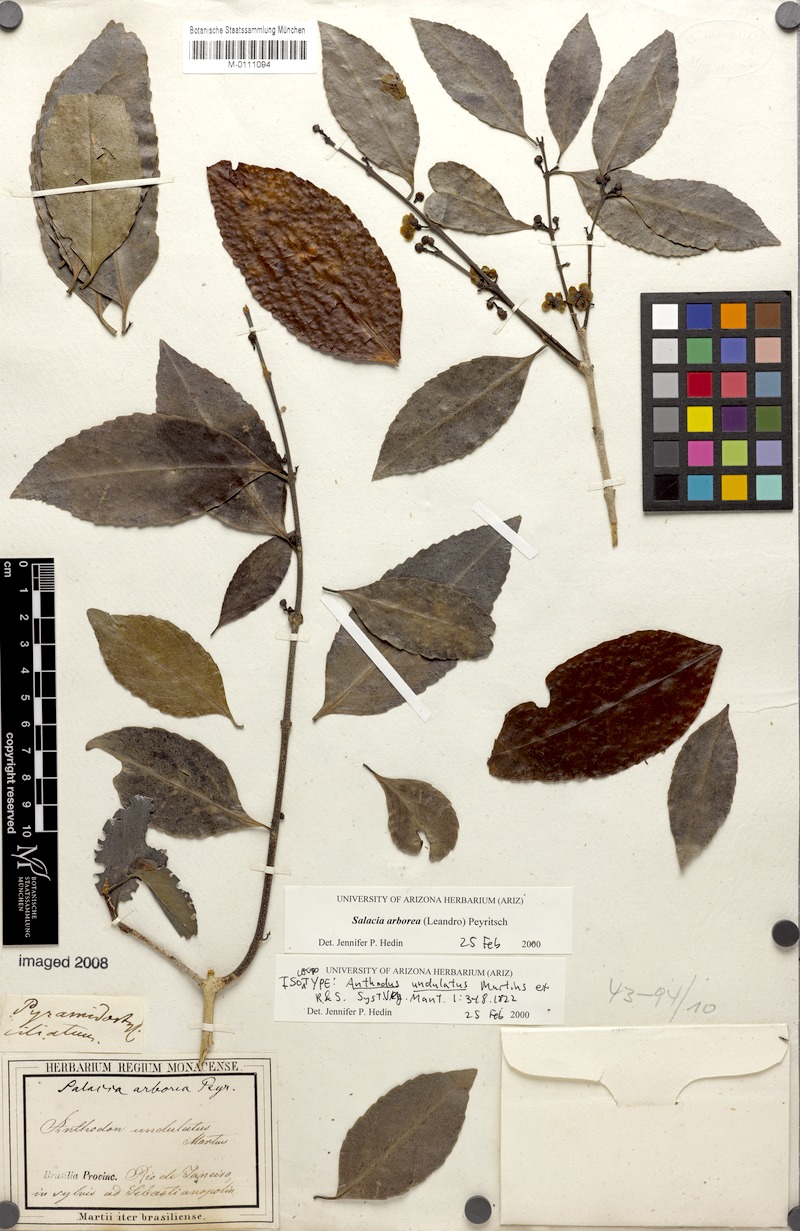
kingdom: Plantae
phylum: Tracheophyta
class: Magnoliopsida
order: Celastrales
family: Celastraceae
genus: Salacia
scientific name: Salacia arborea
